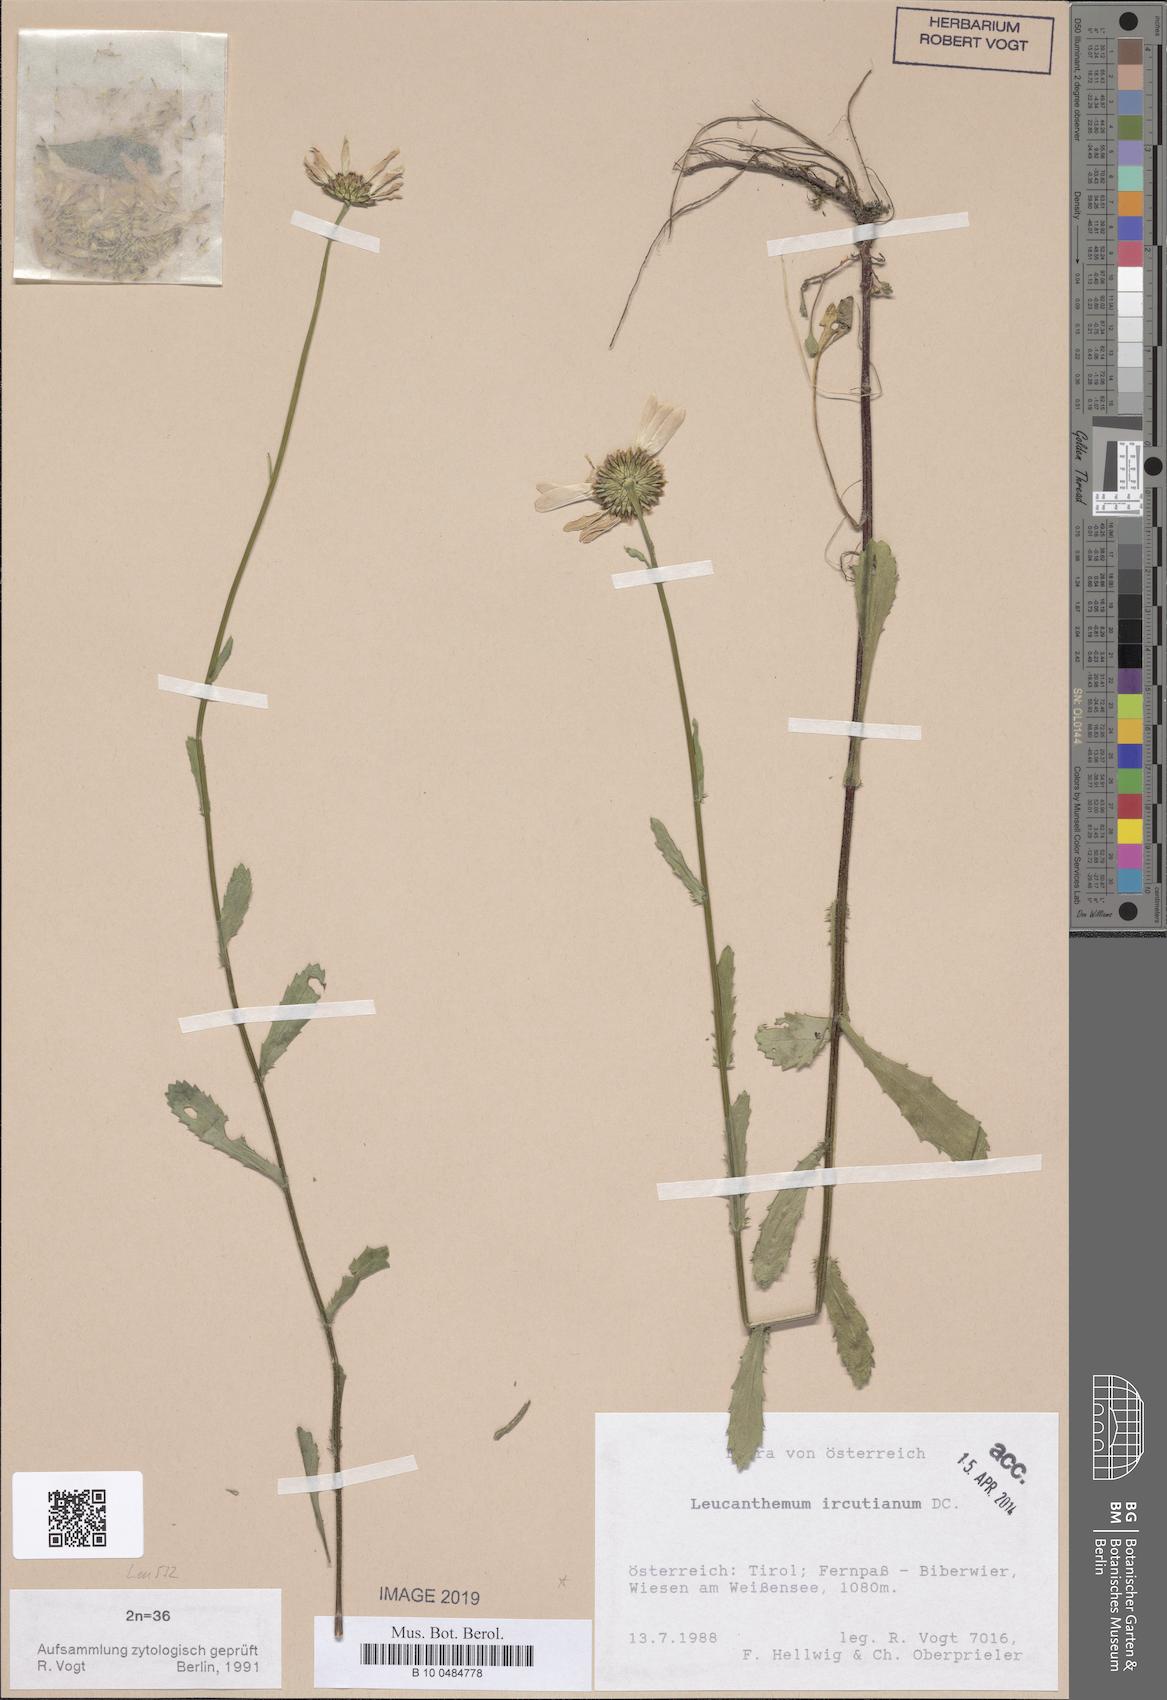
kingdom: Plantae
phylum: Tracheophyta
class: Magnoliopsida
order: Asterales
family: Asteraceae
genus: Leucanthemum
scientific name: Leucanthemum ircutianum
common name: Daisy
